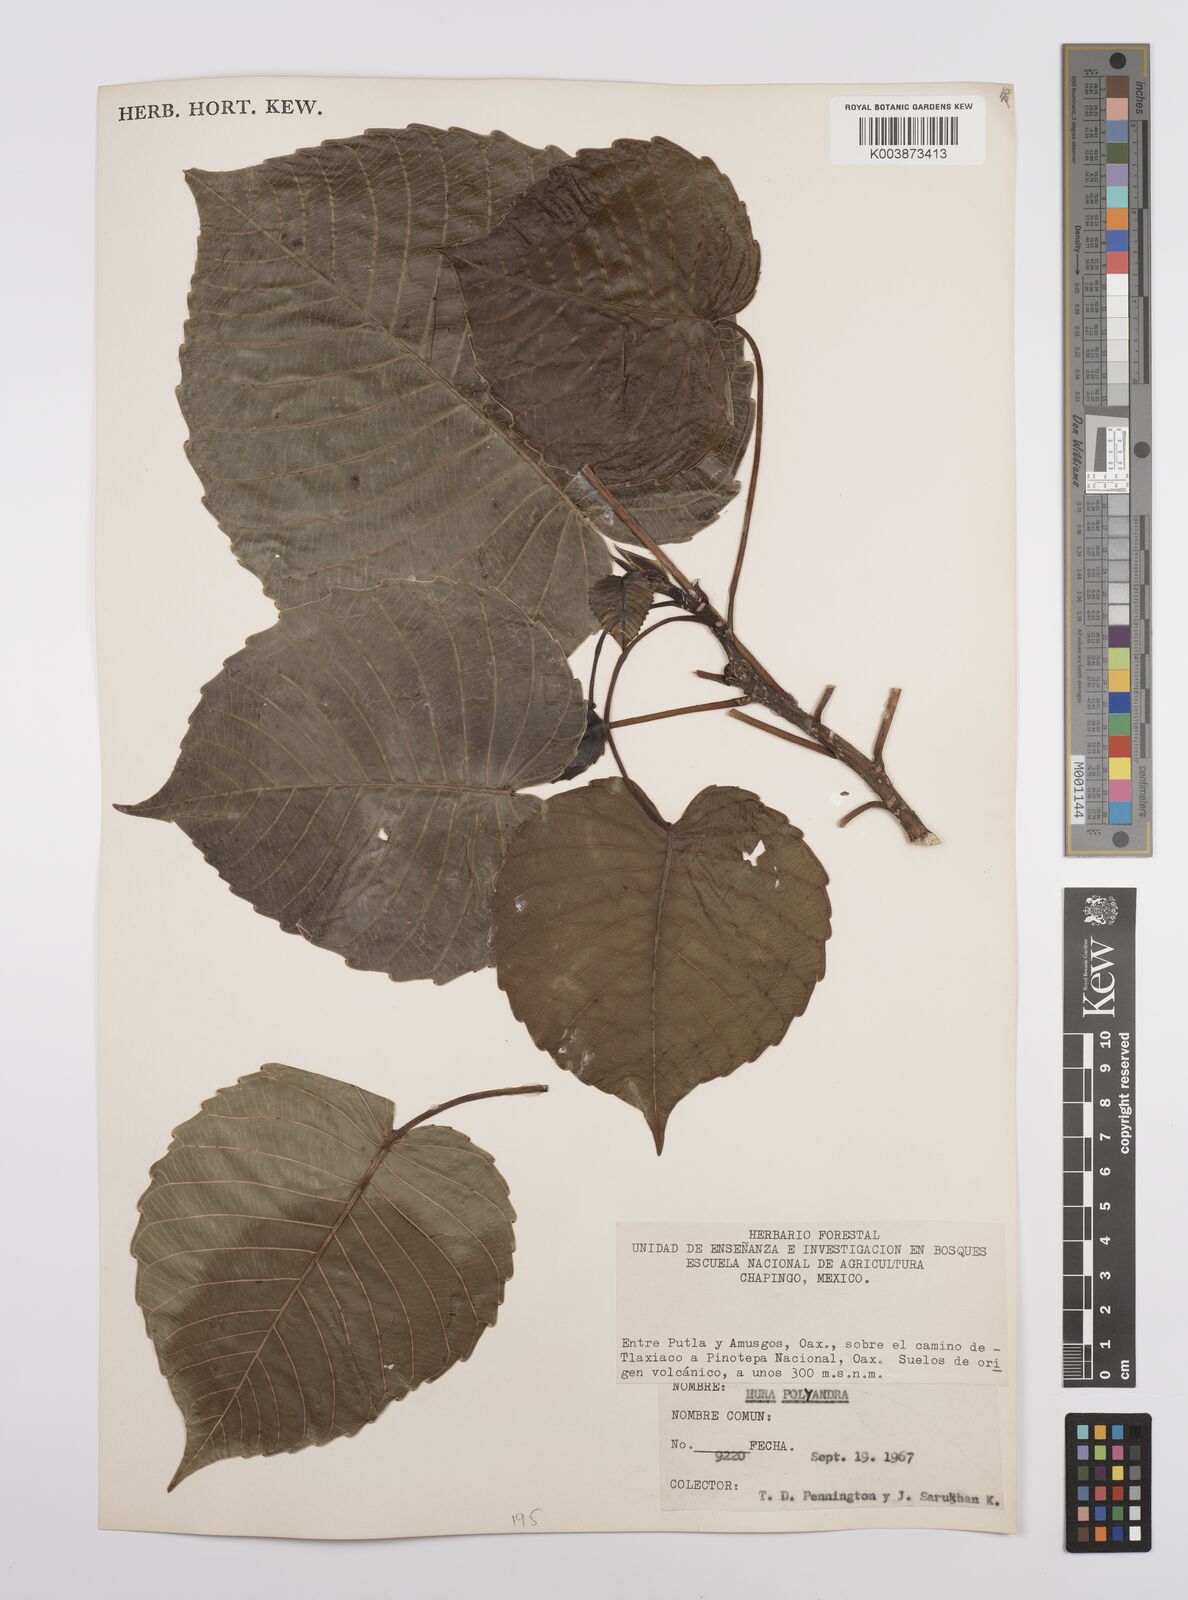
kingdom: Plantae
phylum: Tracheophyta
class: Magnoliopsida
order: Malpighiales
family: Euphorbiaceae
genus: Hura
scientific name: Hura polyandra
